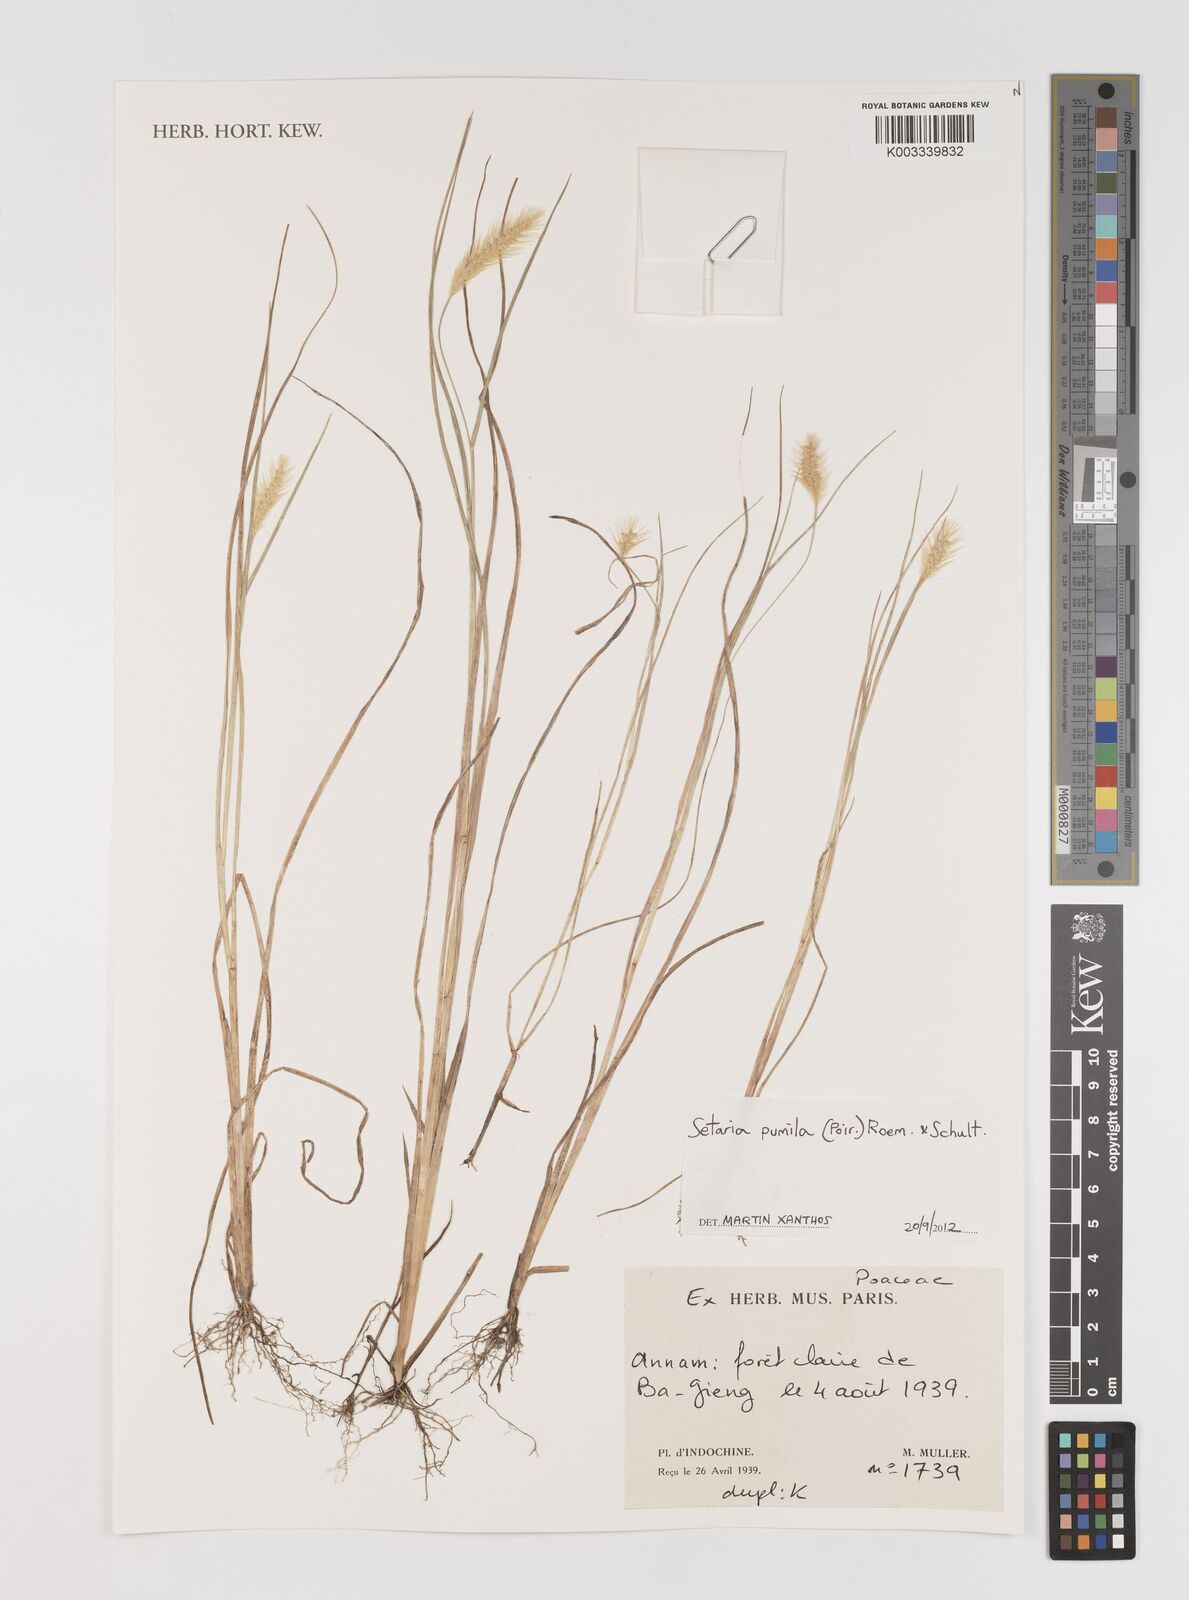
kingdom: Plantae
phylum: Tracheophyta
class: Liliopsida
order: Poales
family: Poaceae
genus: Setaria
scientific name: Setaria pumila
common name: Yellow bristle-grass
